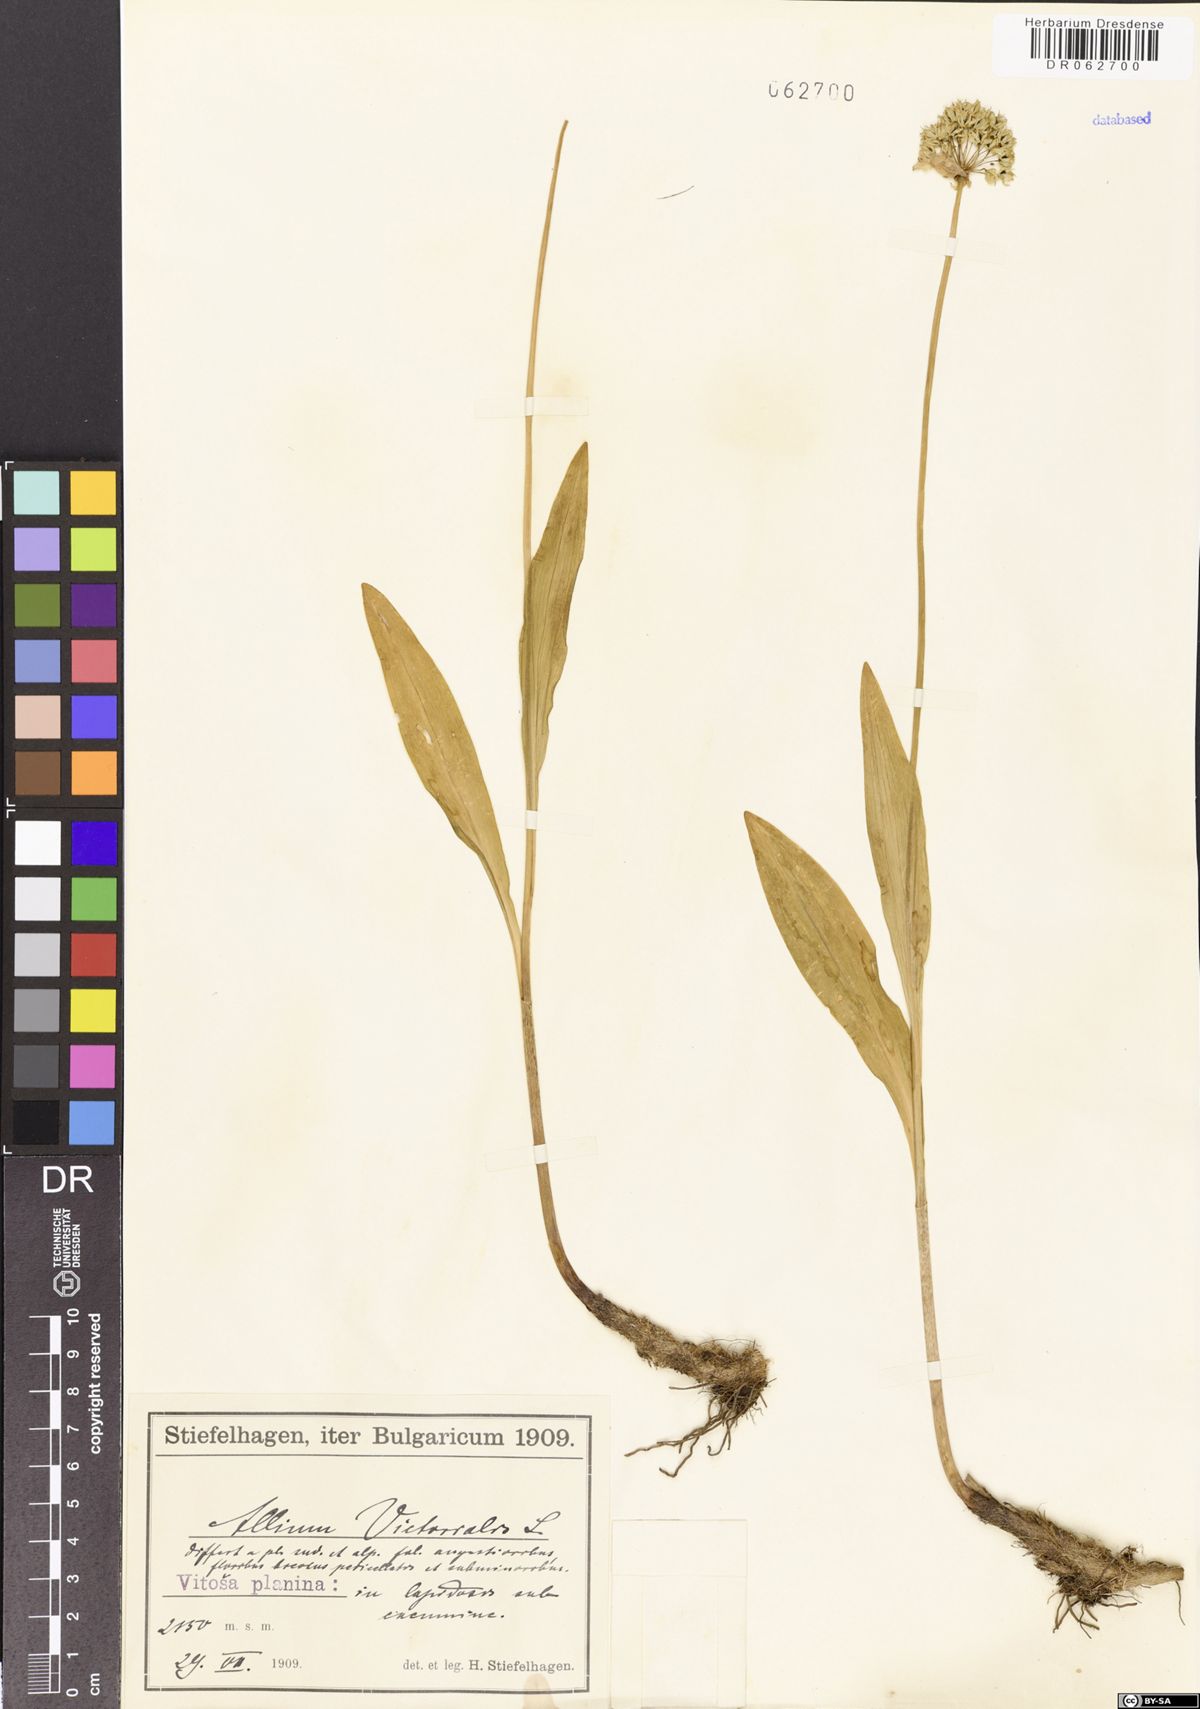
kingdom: Plantae
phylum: Tracheophyta
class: Liliopsida
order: Asparagales
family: Amaryllidaceae
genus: Allium
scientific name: Allium victorialis
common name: Alpine leek
